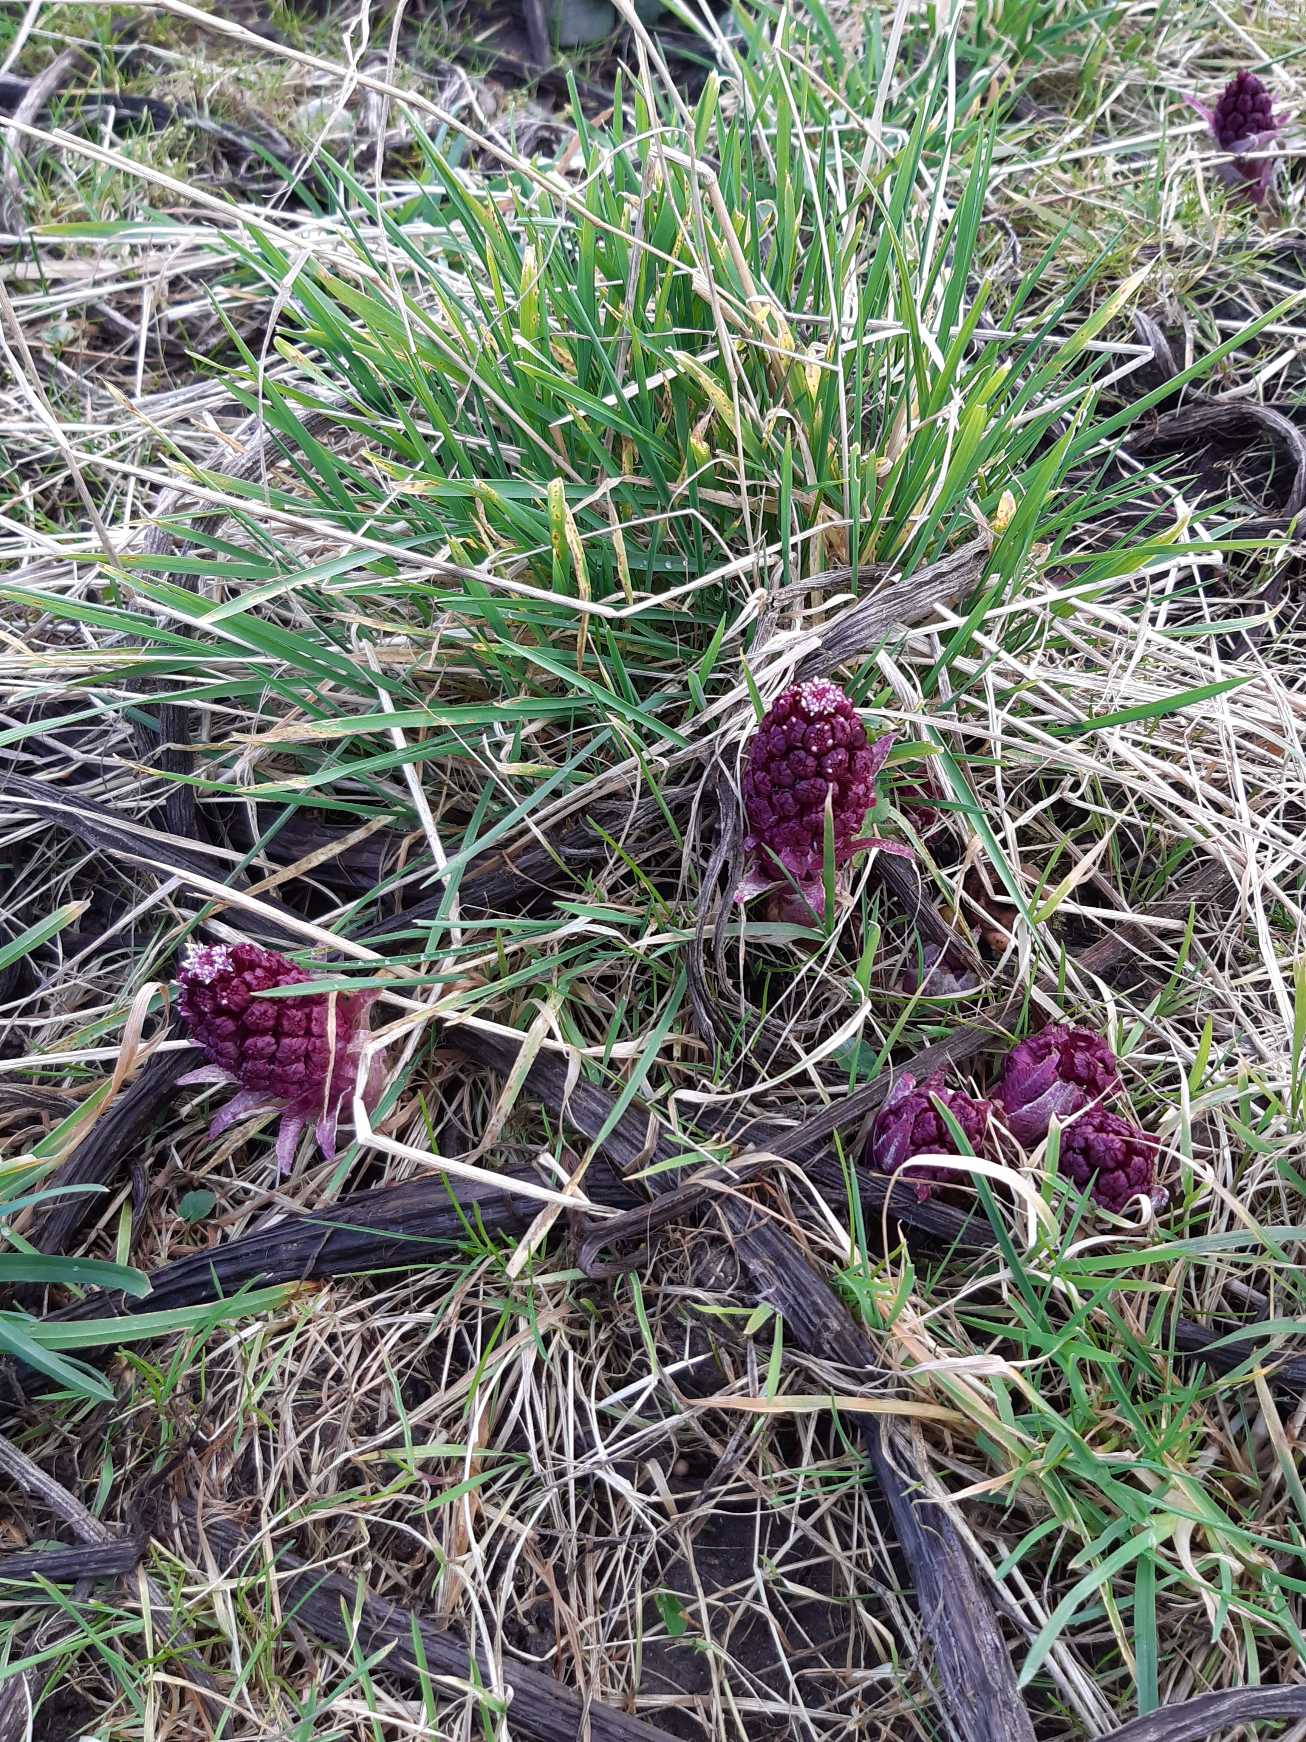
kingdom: Plantae
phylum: Tracheophyta
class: Magnoliopsida
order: Asterales
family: Asteraceae
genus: Petasites
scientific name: Petasites hybridus
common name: Rød hestehov
